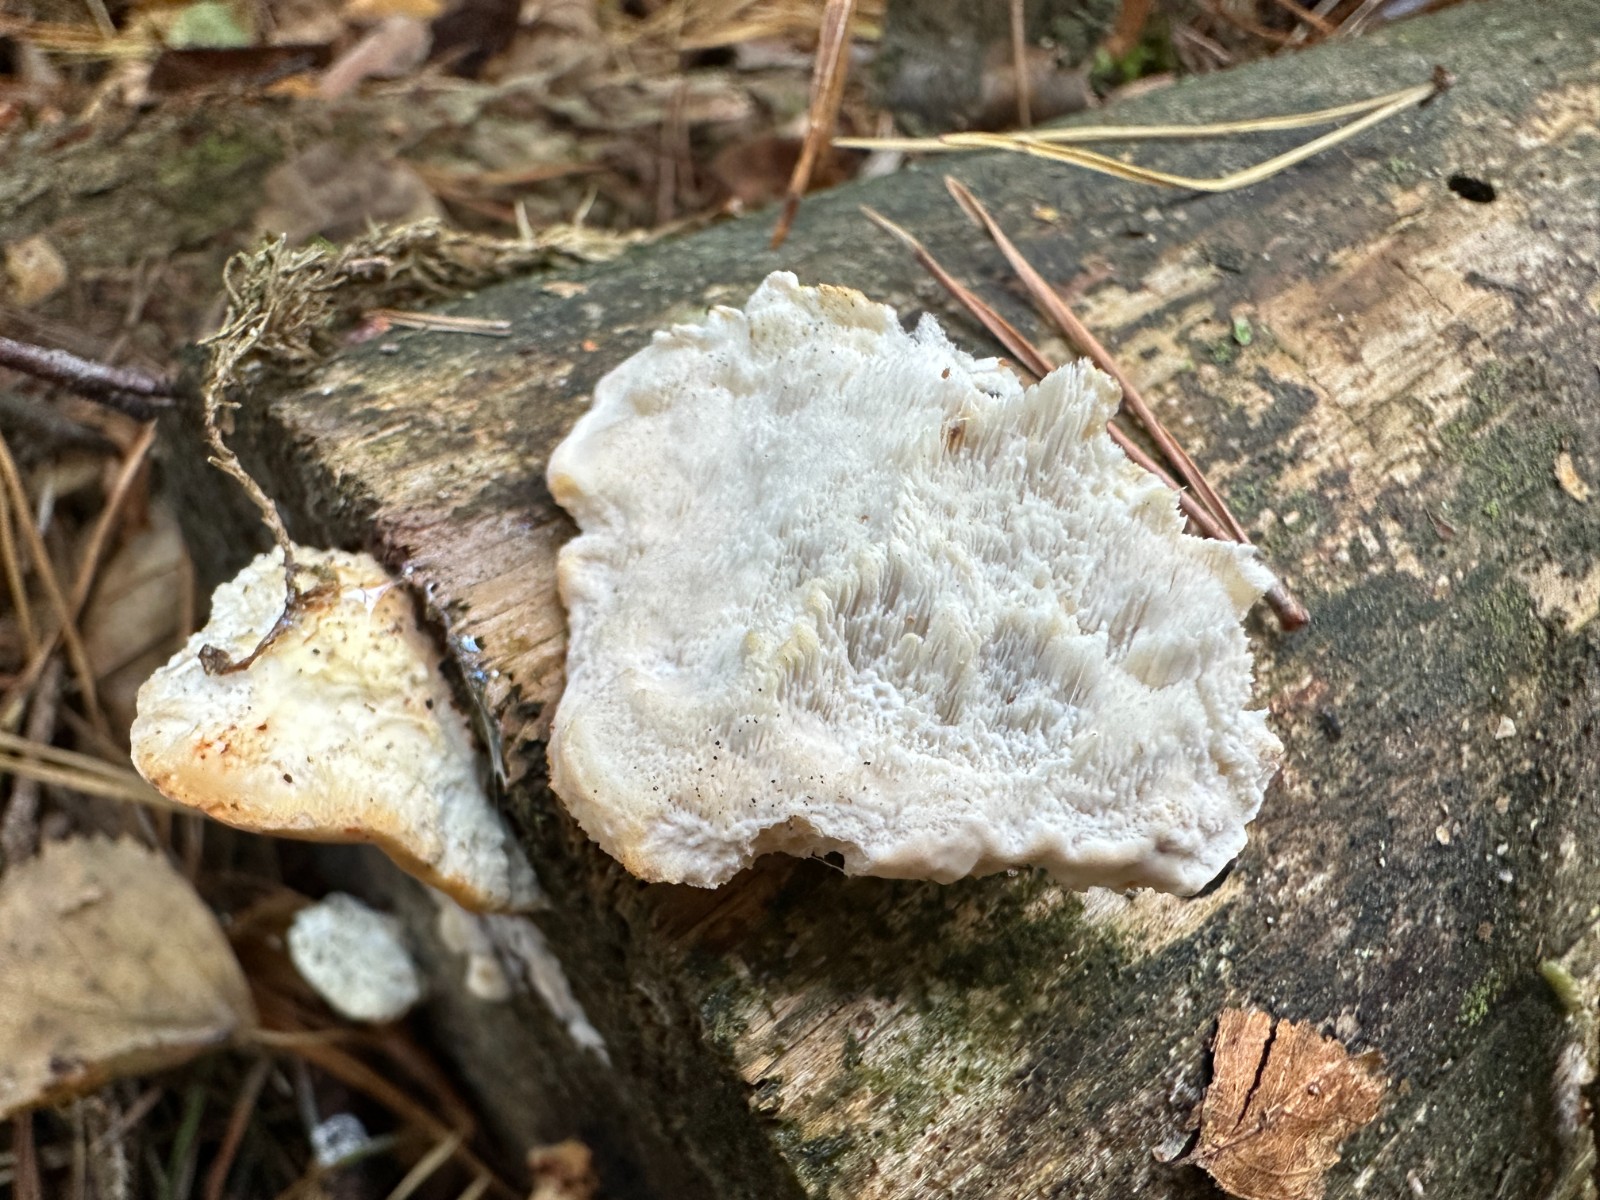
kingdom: Fungi
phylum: Basidiomycota
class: Agaricomycetes
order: Polyporales
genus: Fuscopostia
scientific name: Fuscopostia fragilis
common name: brunende kødporesvamp
